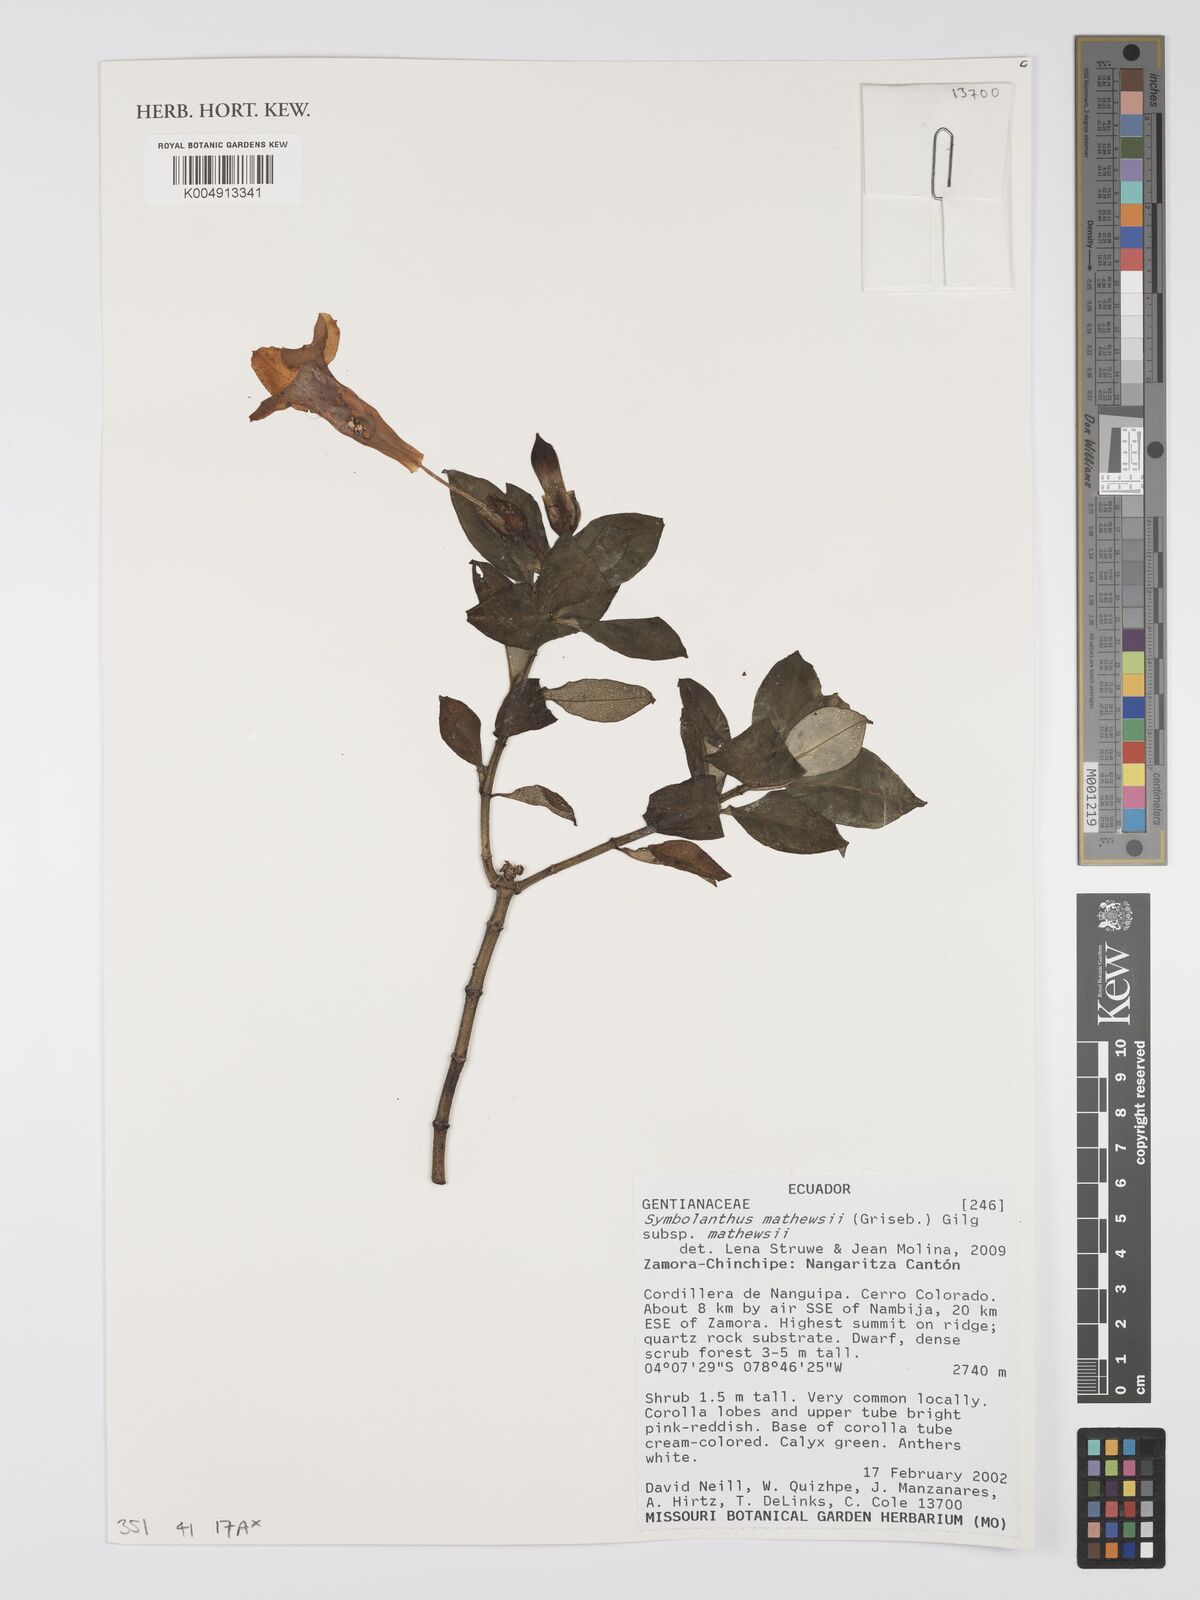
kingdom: Plantae
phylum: Tracheophyta
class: Magnoliopsida
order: Gentianales
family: Gentianaceae
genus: Symbolanthus
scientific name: Symbolanthus mathewsii
